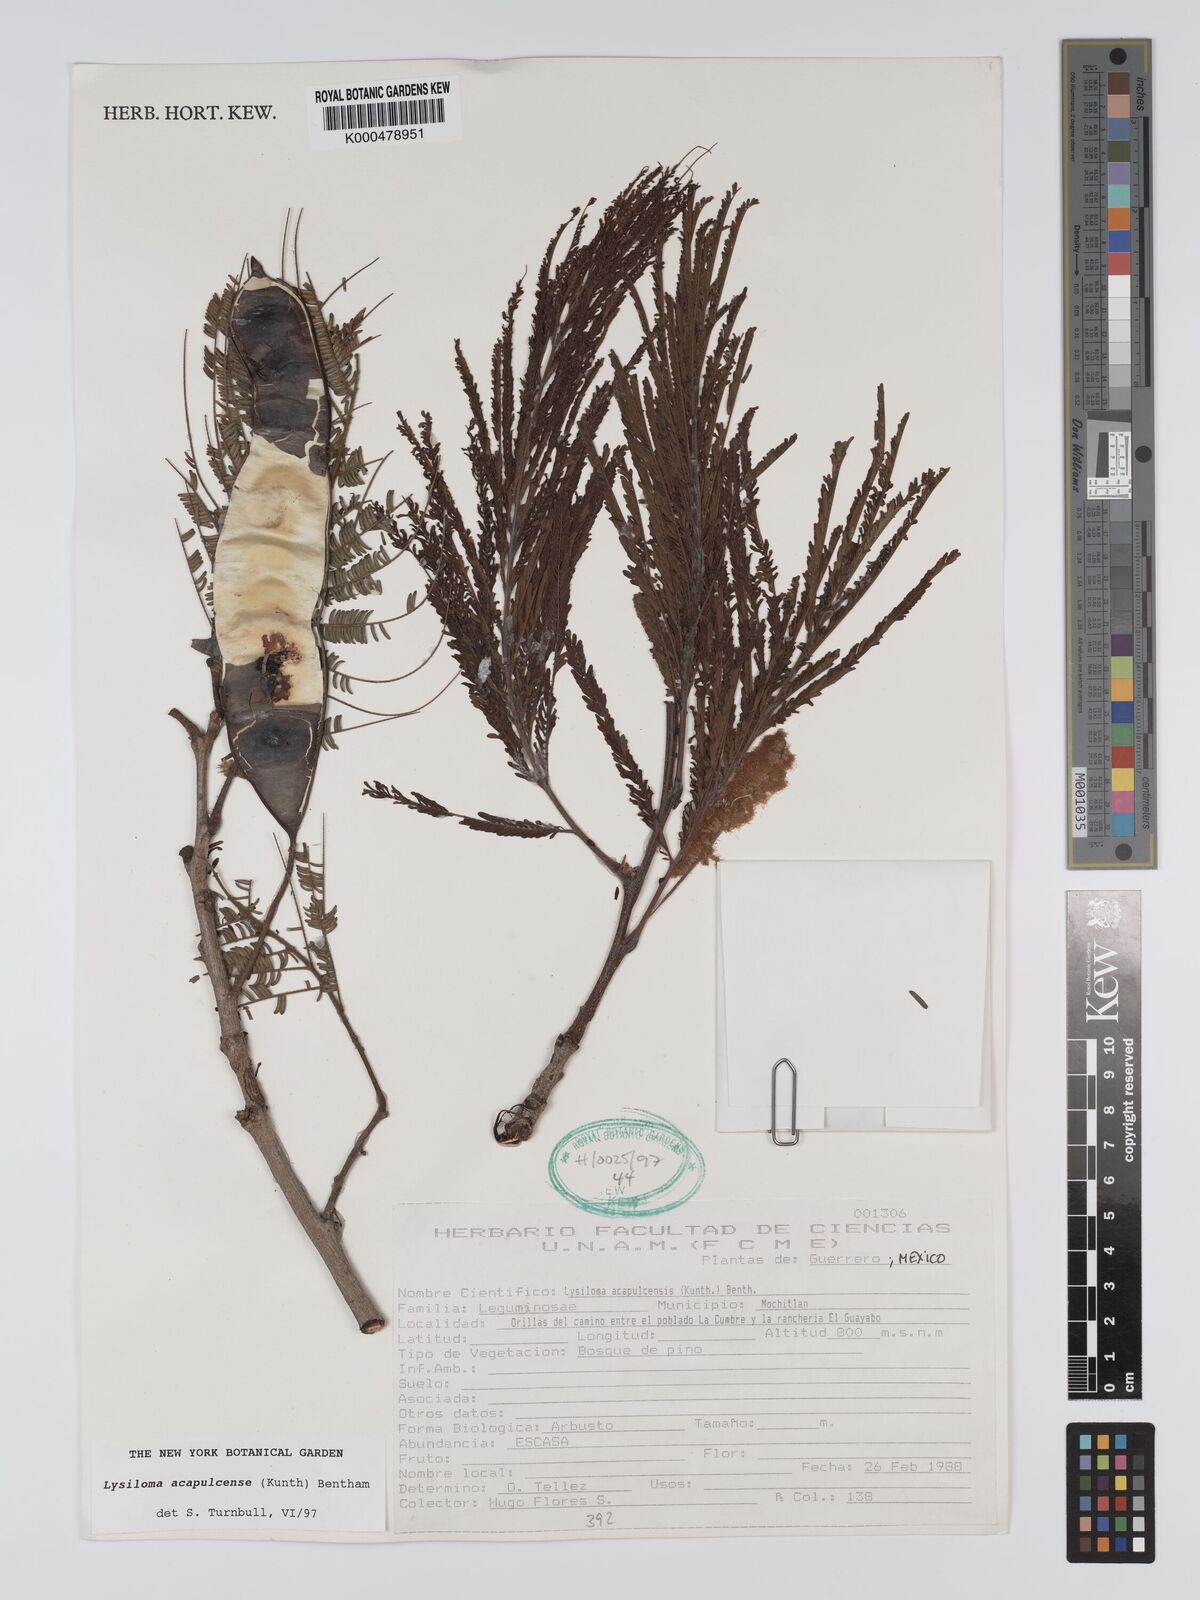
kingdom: Plantae
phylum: Tracheophyta
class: Magnoliopsida
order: Fabales
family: Fabaceae
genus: Lysiloma
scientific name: Lysiloma
